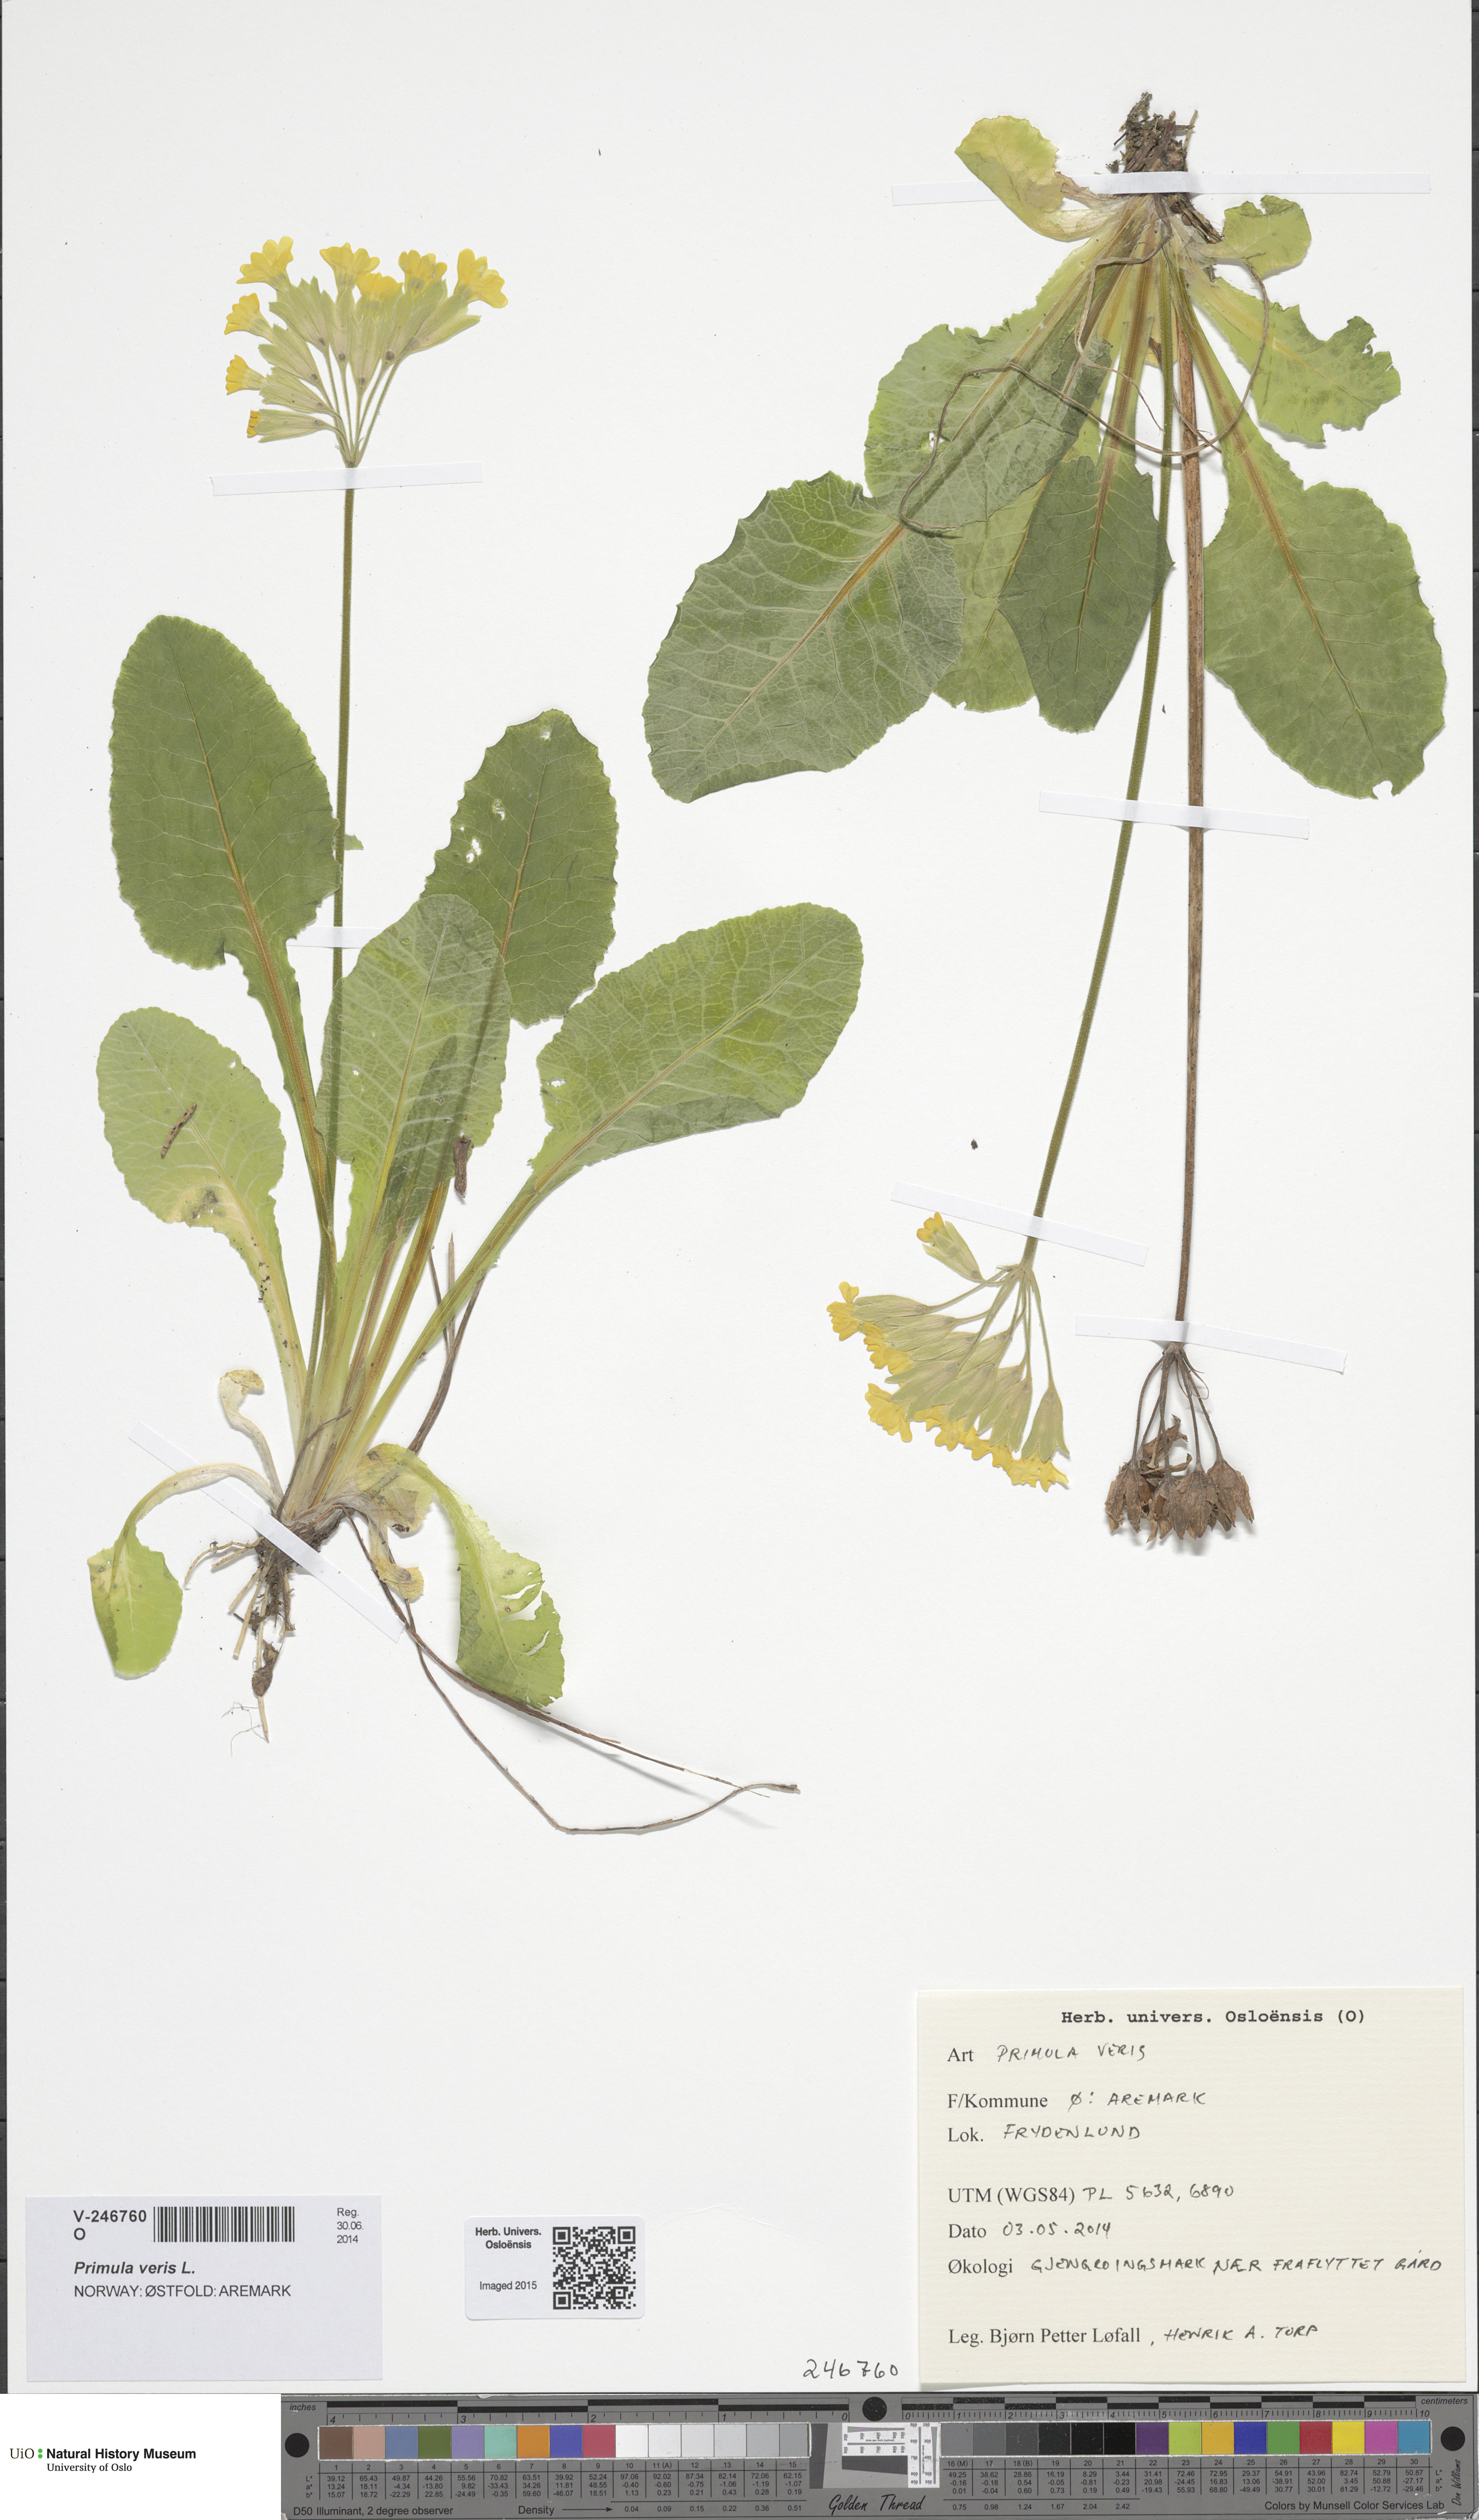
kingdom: Plantae
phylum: Tracheophyta
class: Magnoliopsida
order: Ericales
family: Primulaceae
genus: Primula
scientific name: Primula veris
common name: Cowslip
